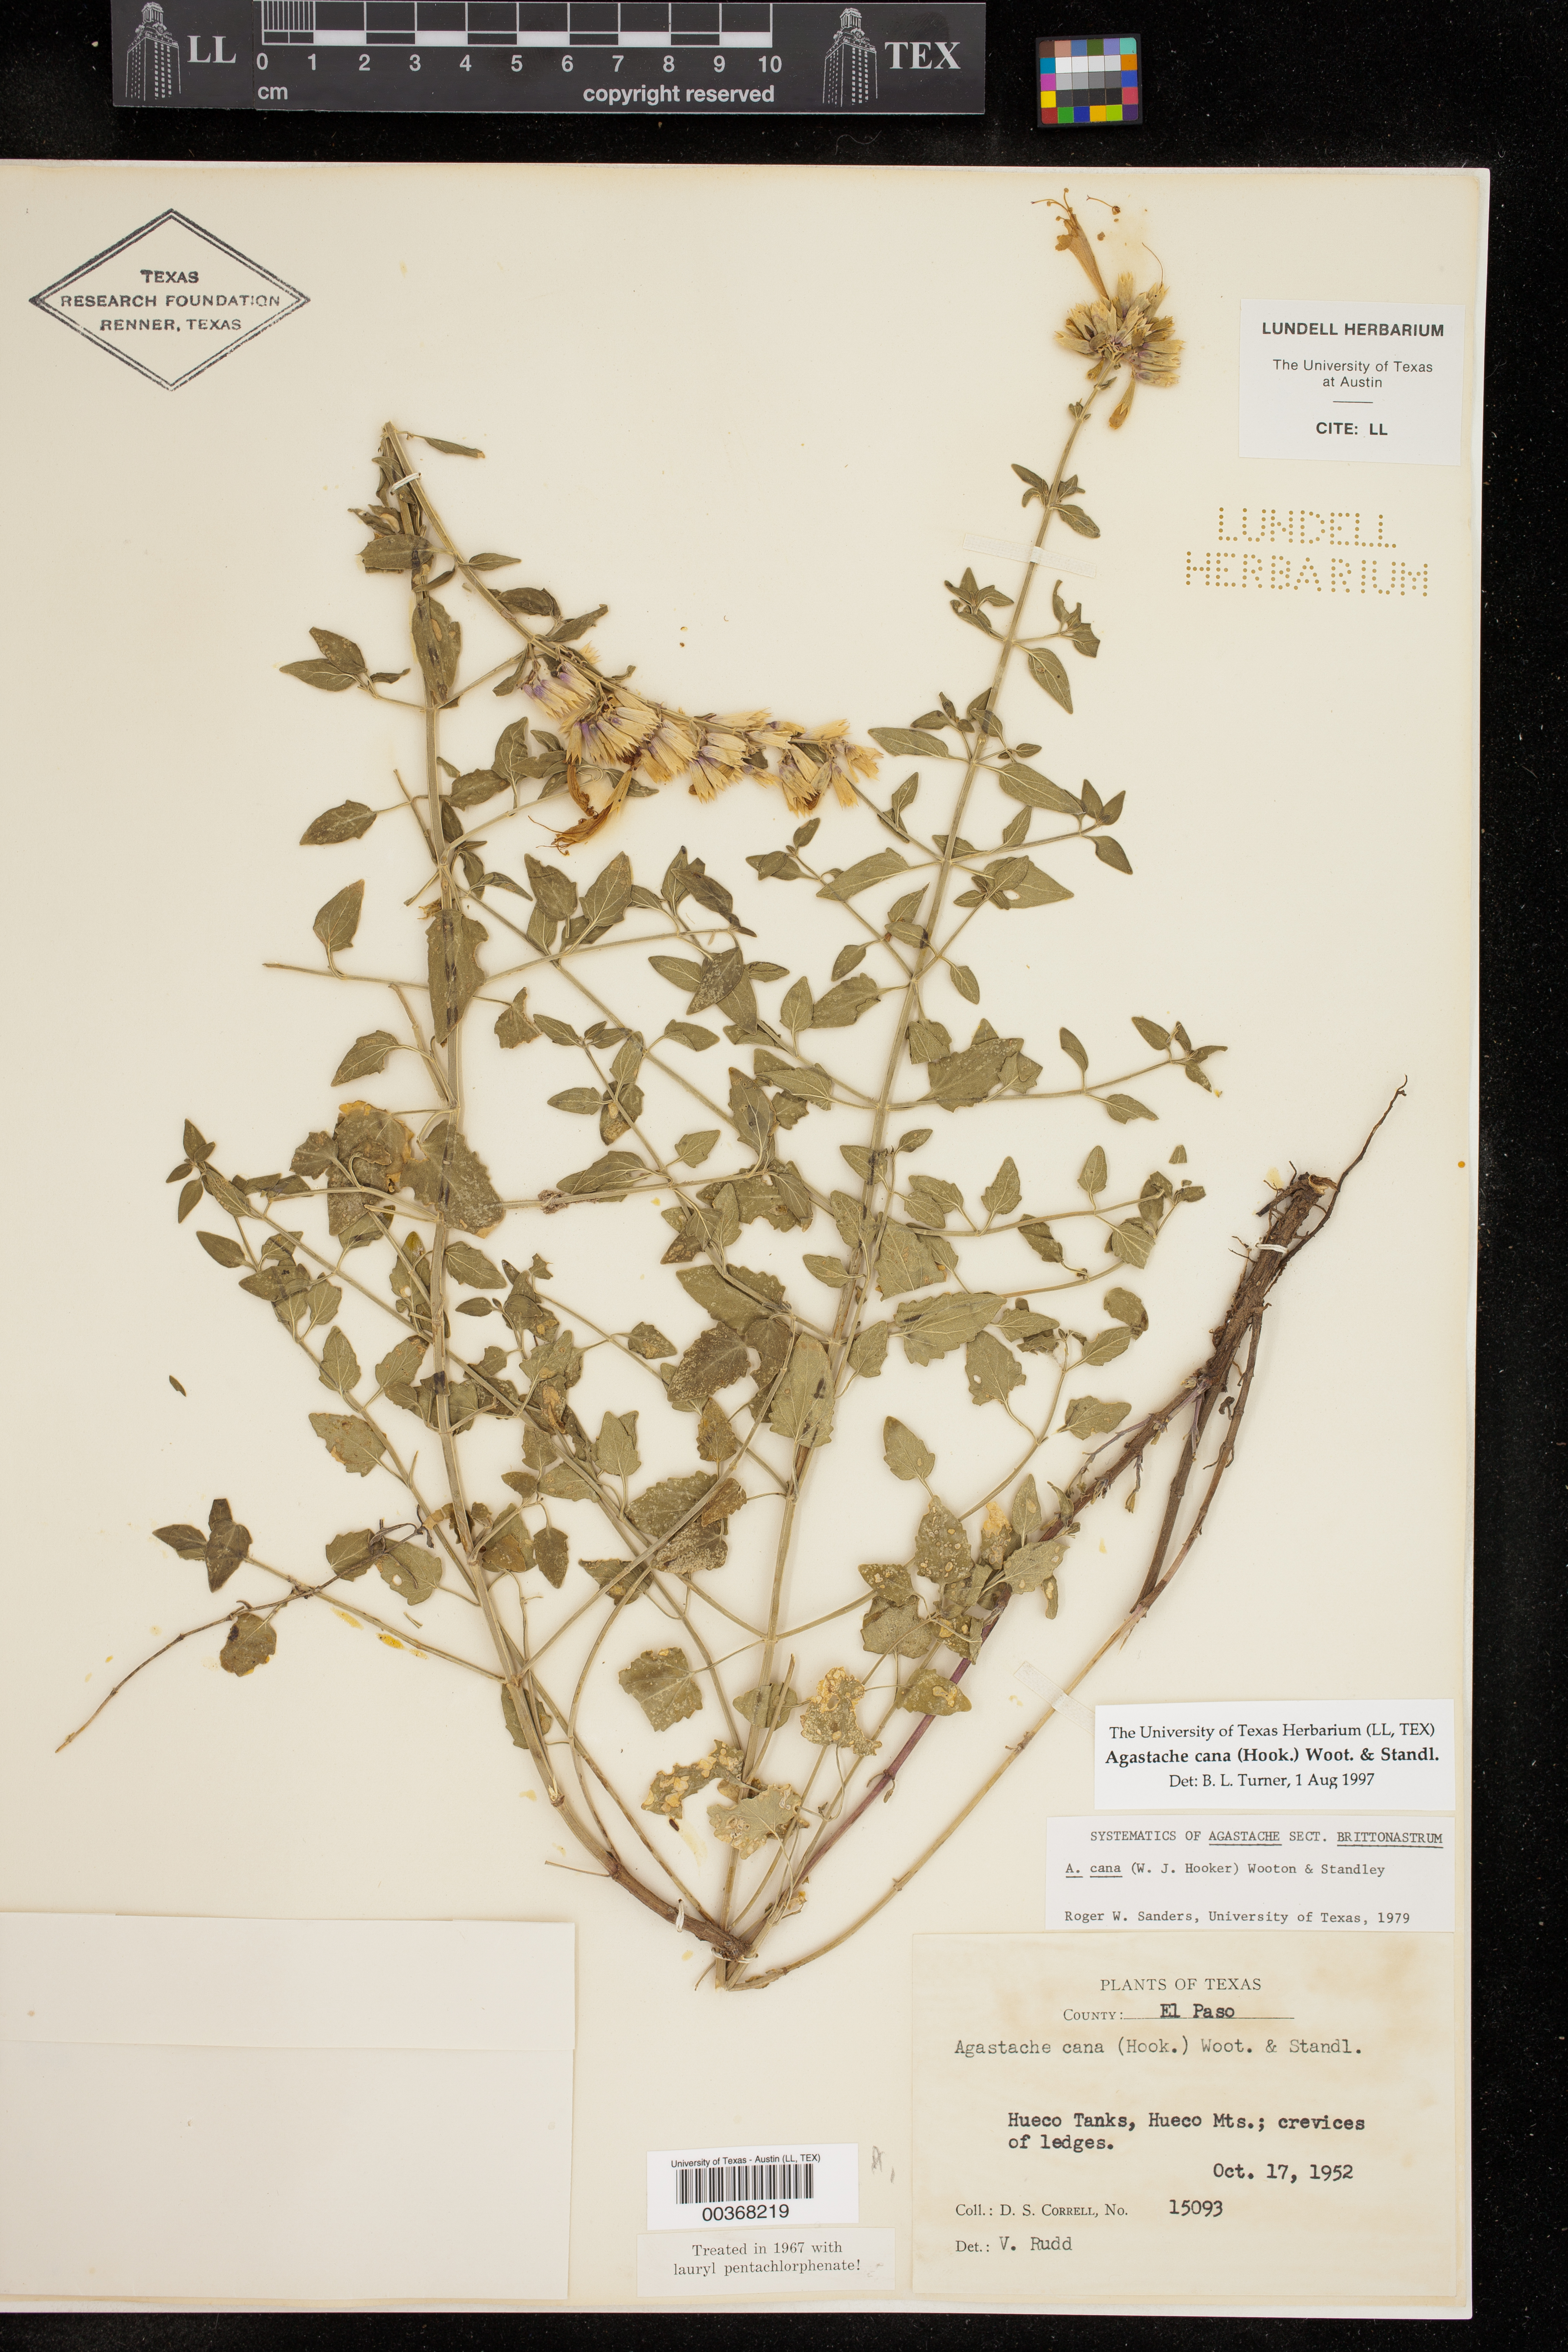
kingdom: Plantae
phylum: Tracheophyta
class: Magnoliopsida
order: Lamiales
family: Lamiaceae
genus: Agastache
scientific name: Agastache cana
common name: Double bubble mint
